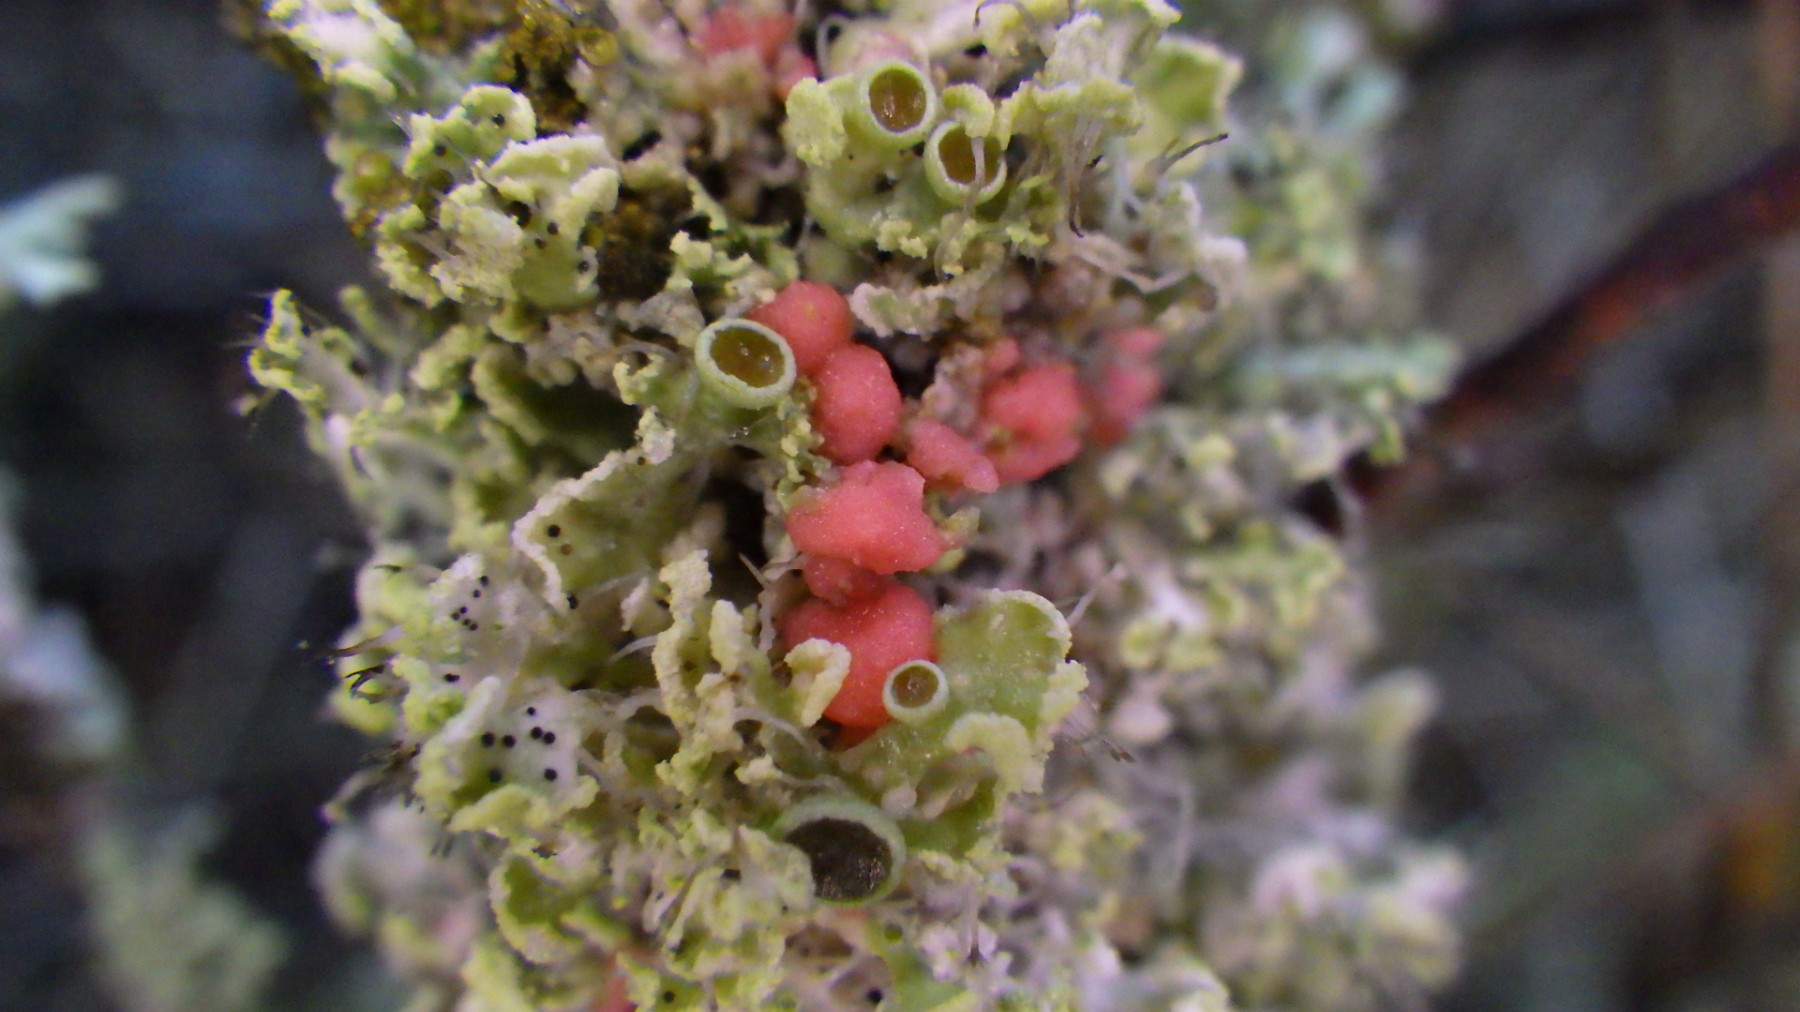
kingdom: Fungi
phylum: Ascomycota
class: Sordariomycetes
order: Hypocreales
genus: Illosporiopsis
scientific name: Illosporiopsis christiansenii
